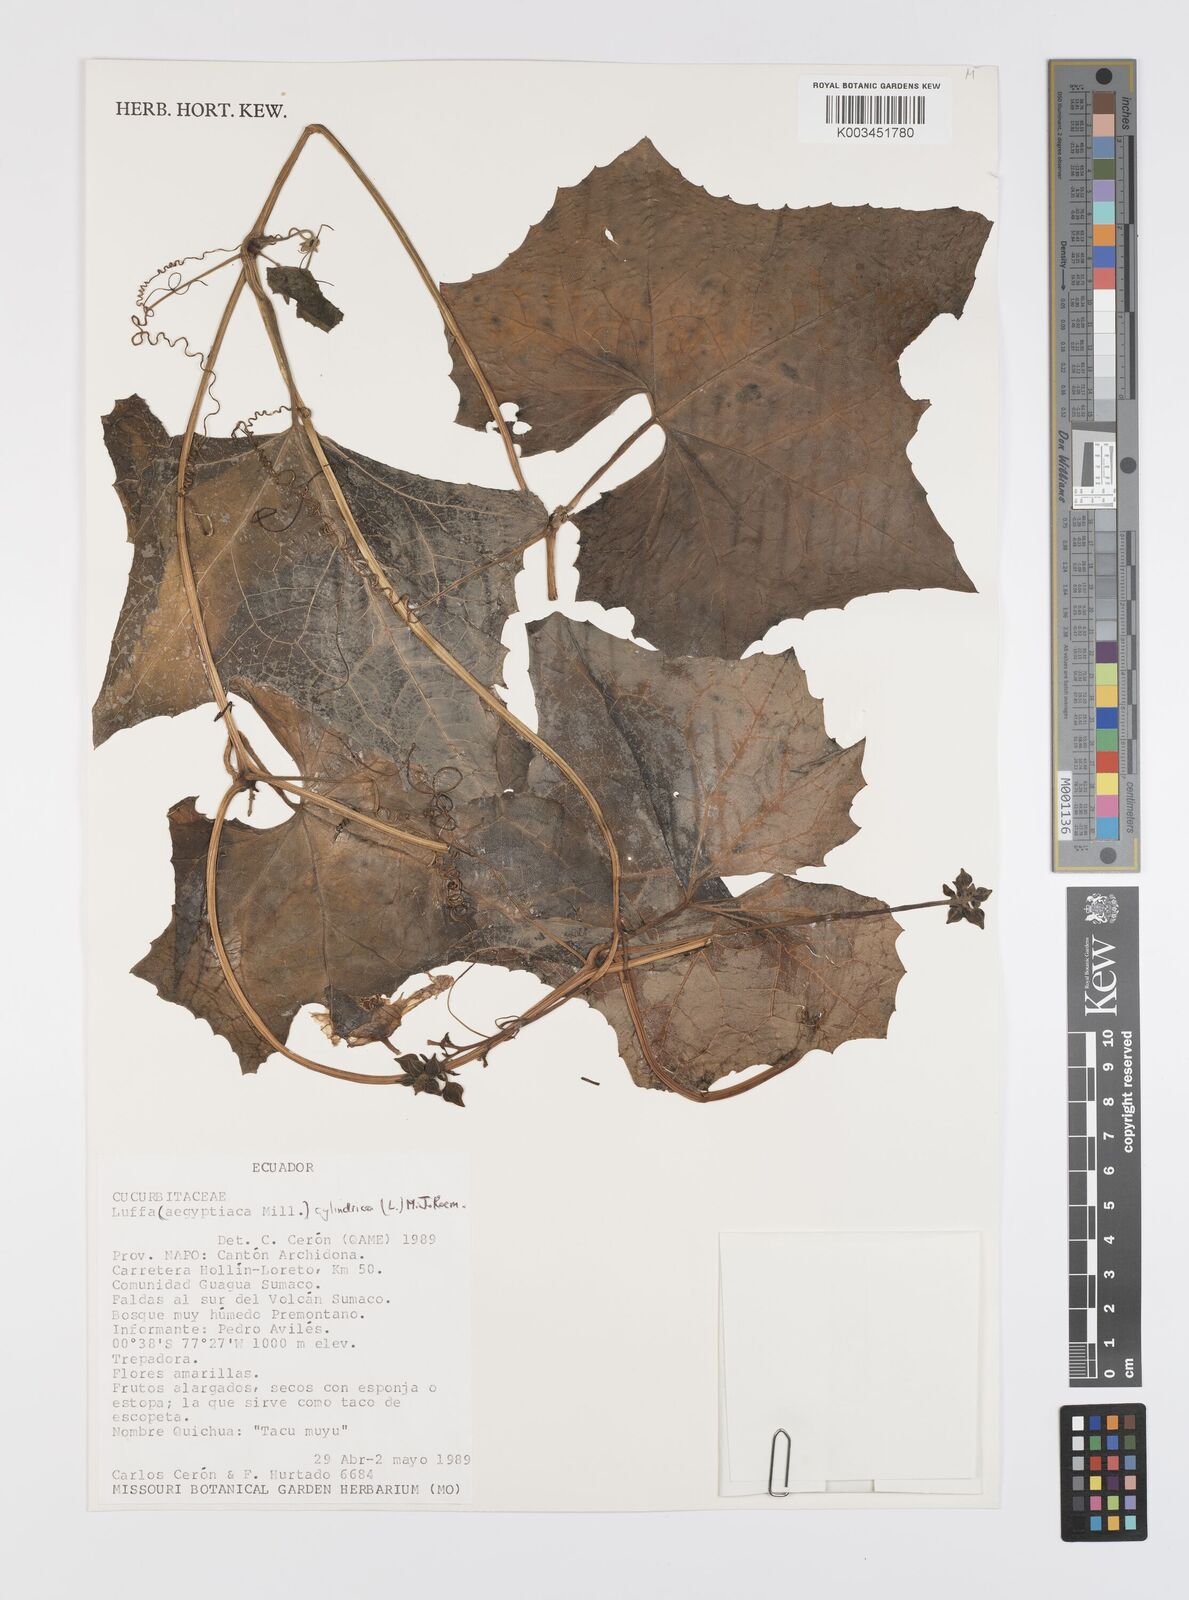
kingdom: Plantae
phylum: Tracheophyta
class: Magnoliopsida
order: Cucurbitales
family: Cucurbitaceae
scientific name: Cucurbitaceae
